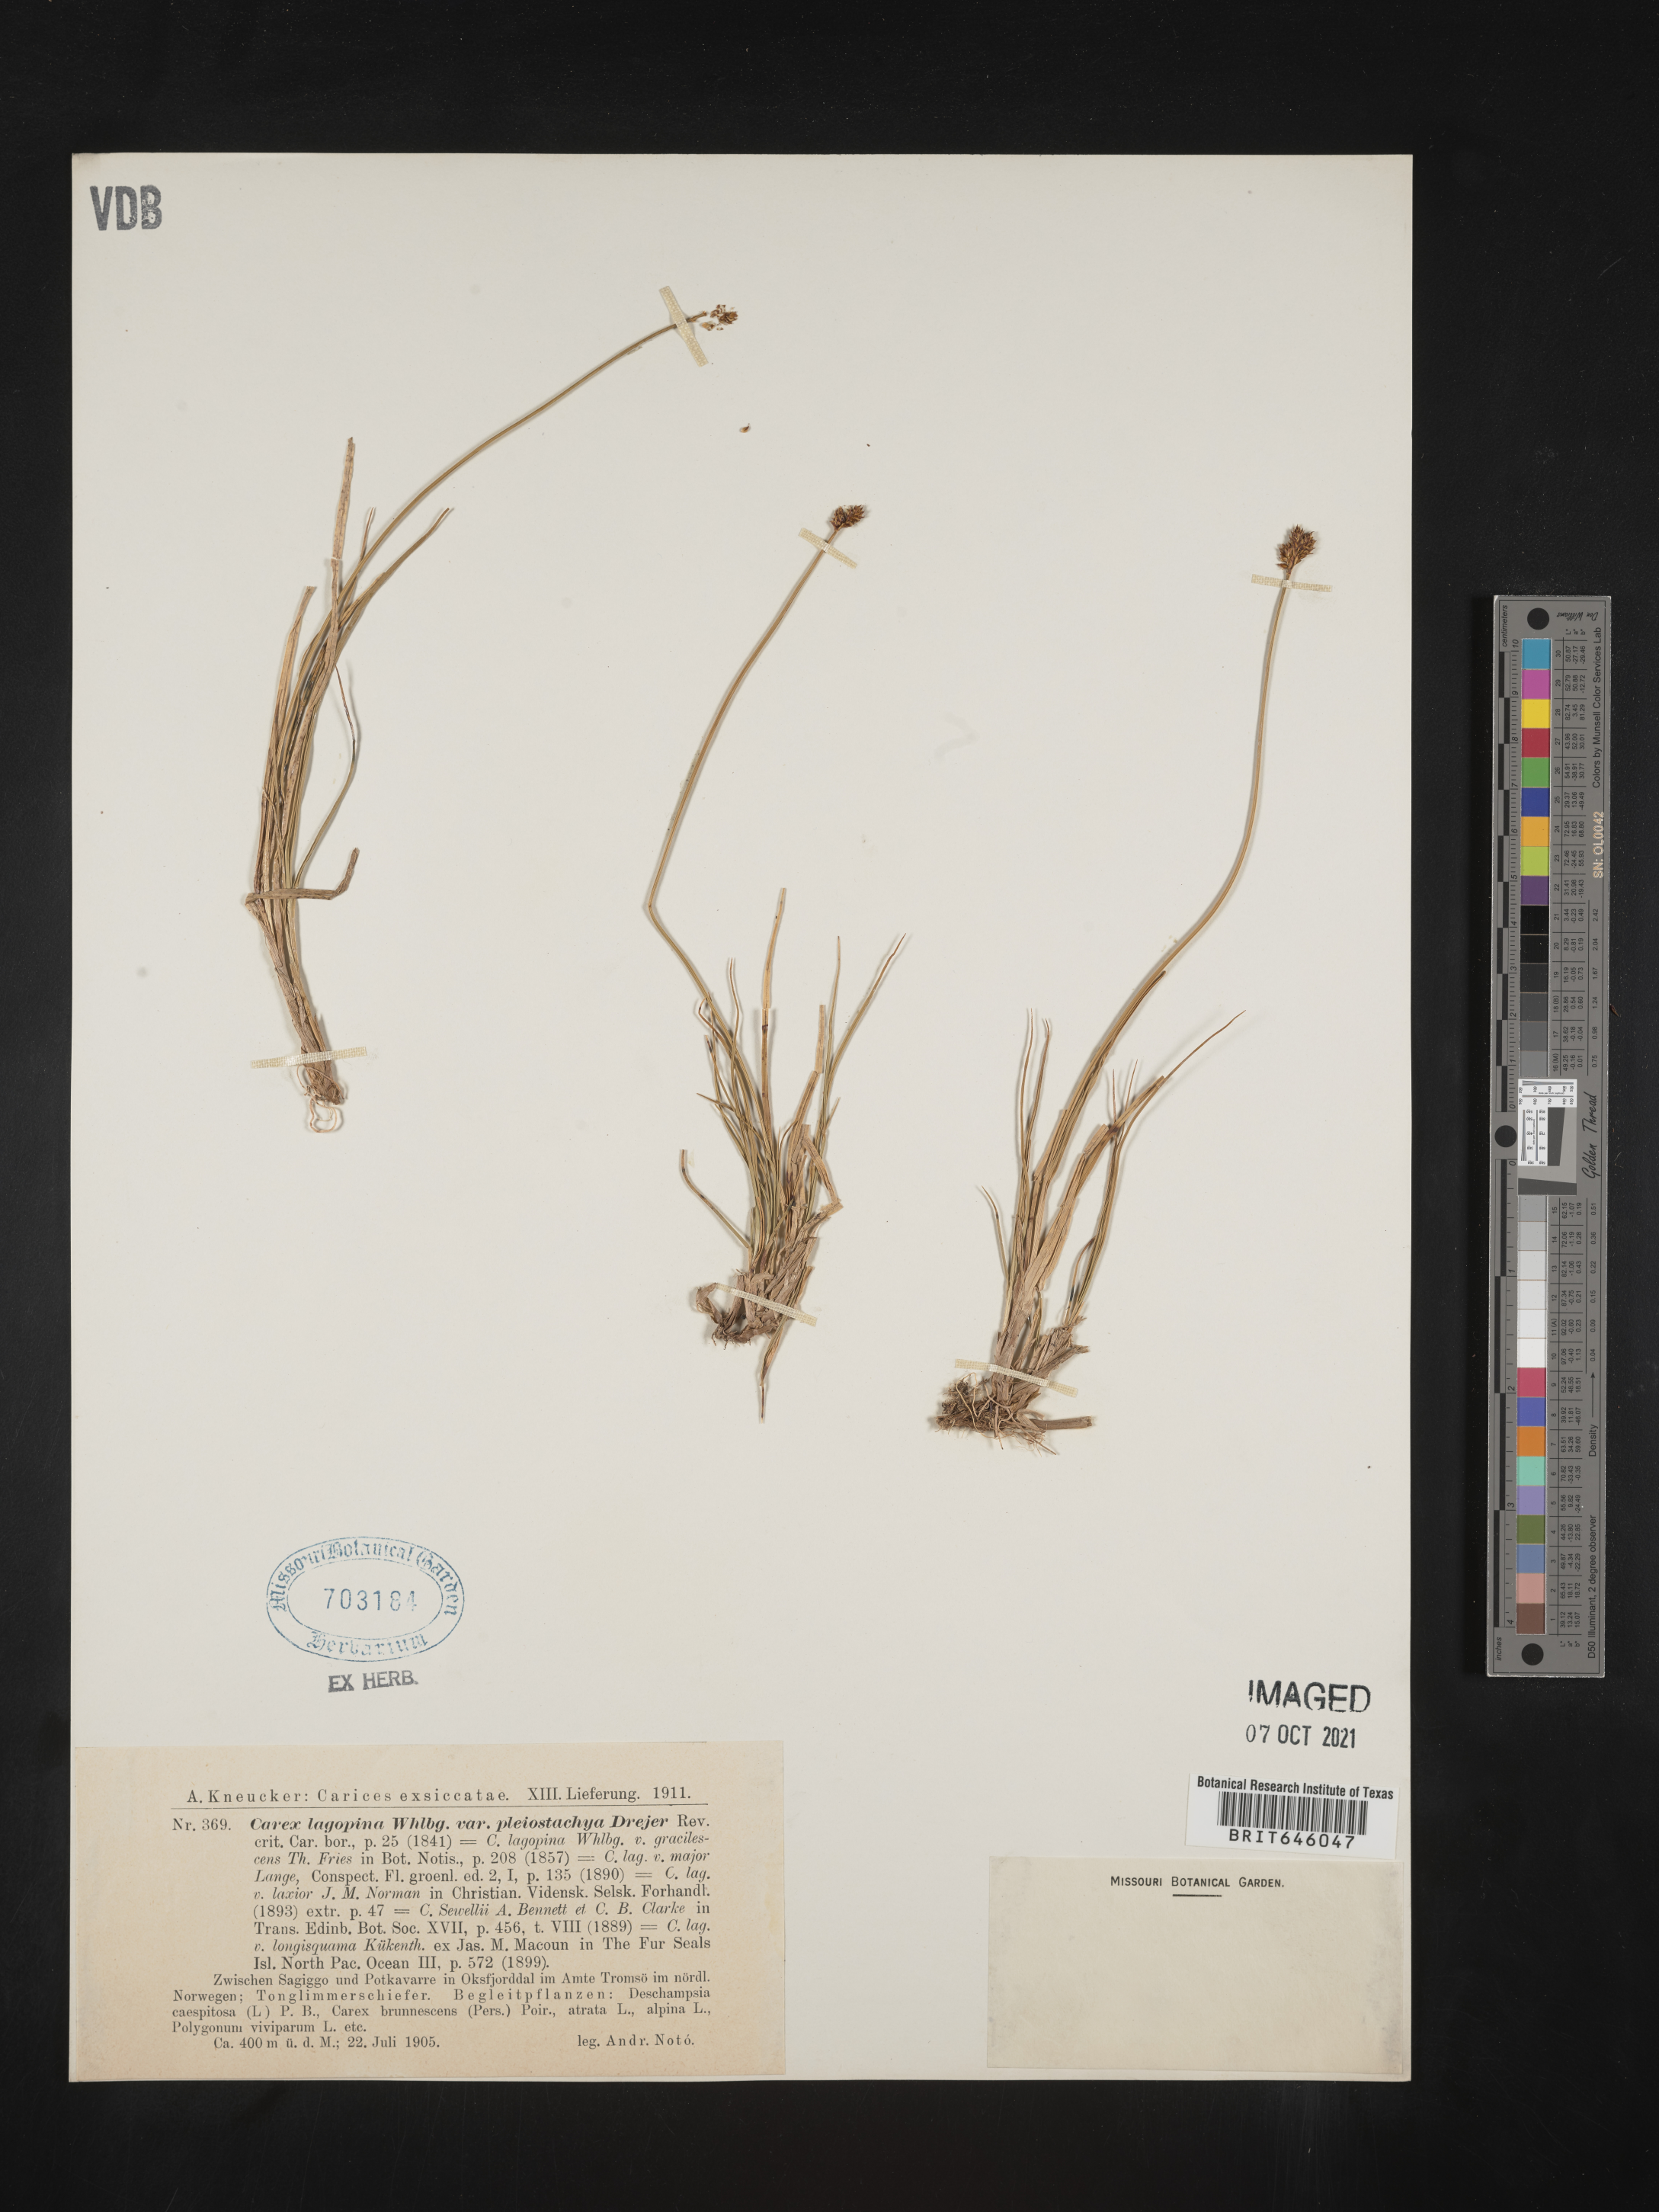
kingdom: Plantae
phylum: Tracheophyta
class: Liliopsida
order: Poales
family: Cyperaceae
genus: Carex
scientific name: Carex lachenalii
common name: Hare's-foot sedge
